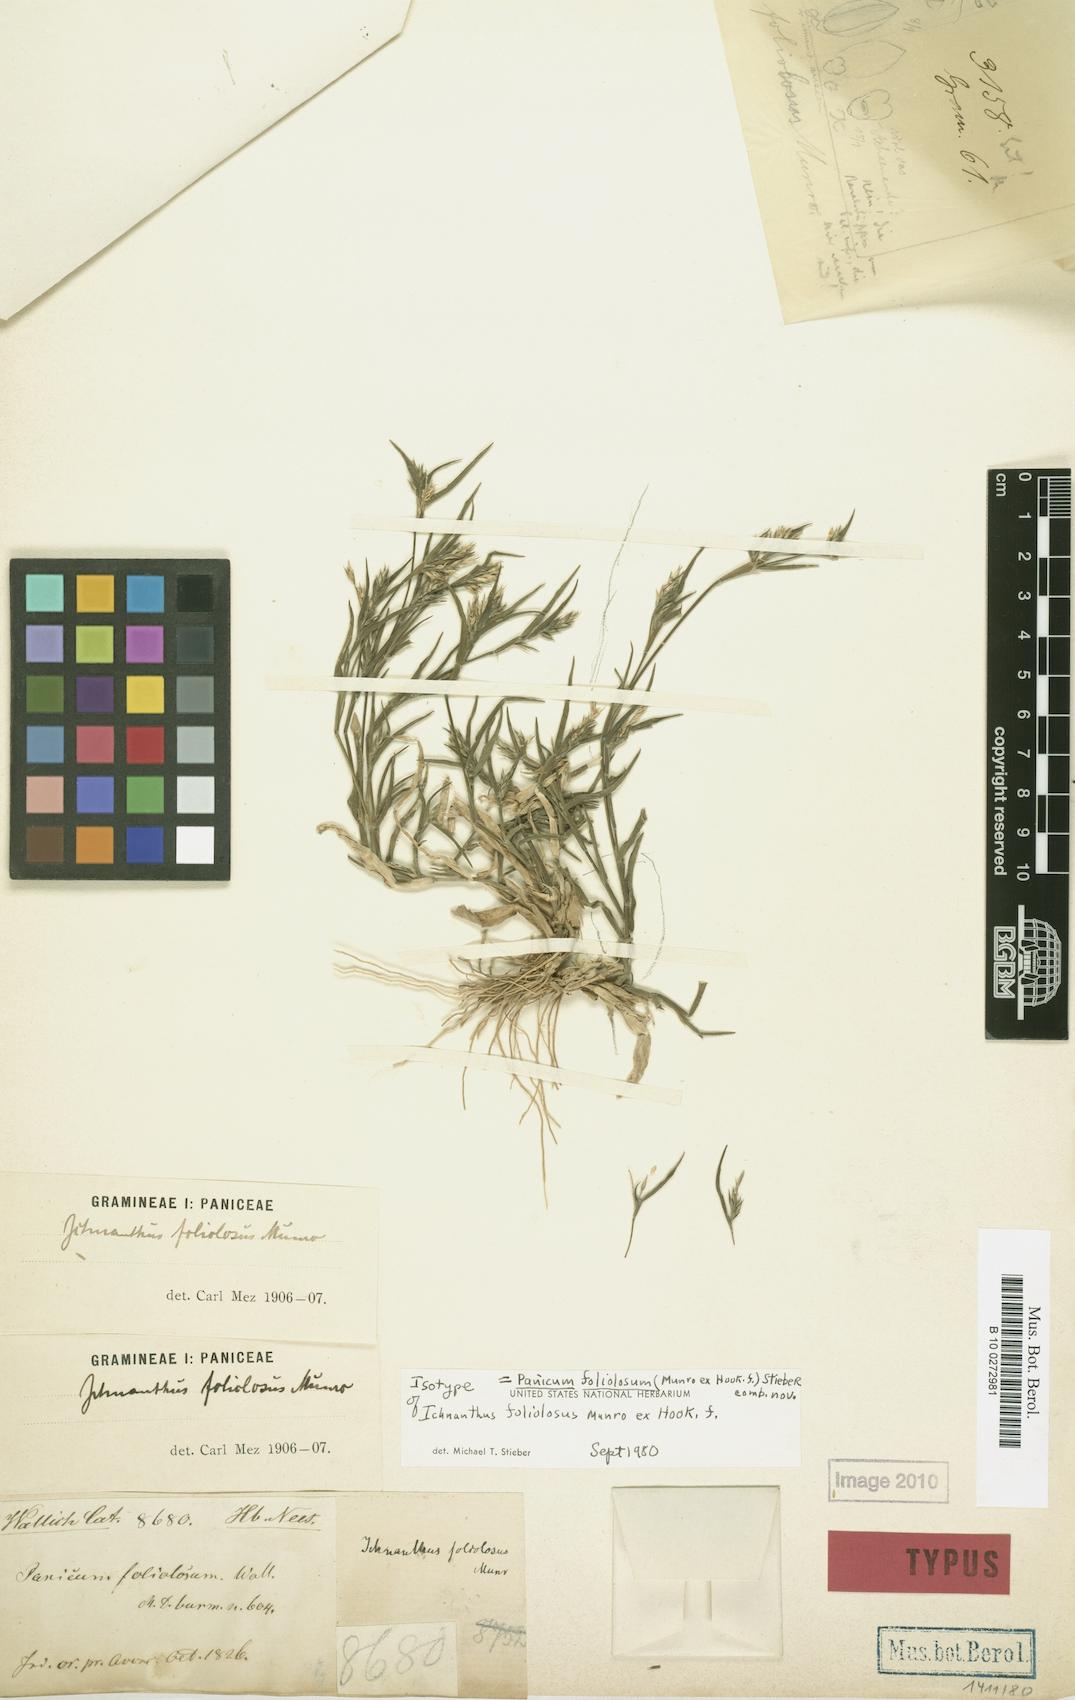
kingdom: Plantae
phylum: Tracheophyta
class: Liliopsida
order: Poales
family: Poaceae
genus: Panicum
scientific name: Panicum foliolosum
